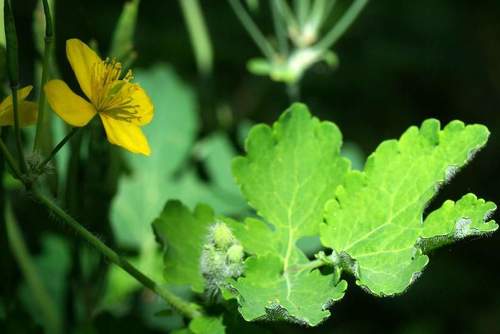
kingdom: Plantae
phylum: Tracheophyta
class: Magnoliopsida
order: Ranunculales
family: Papaveraceae
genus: Chelidonium
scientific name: Chelidonium majus
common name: Greater celandine
